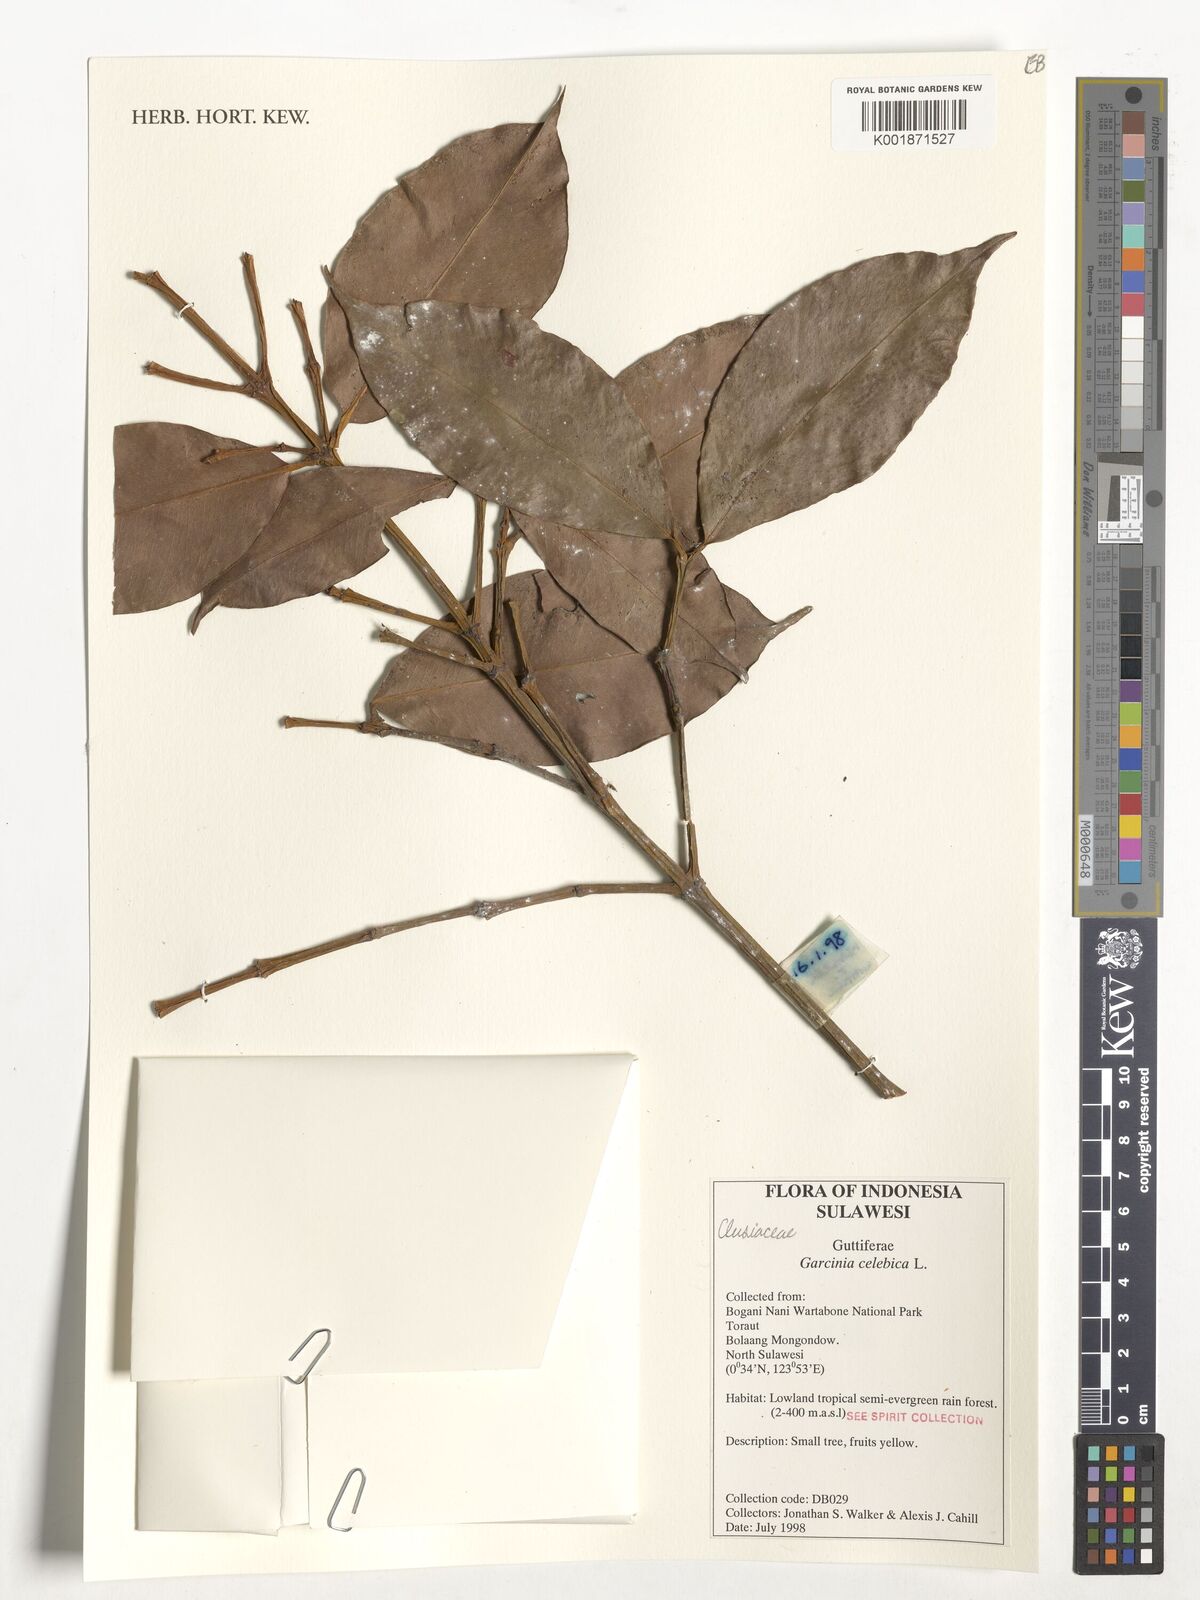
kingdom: Plantae
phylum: Tracheophyta
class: Magnoliopsida
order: Malpighiales
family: Clusiaceae
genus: Garcinia
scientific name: Garcinia celebica
